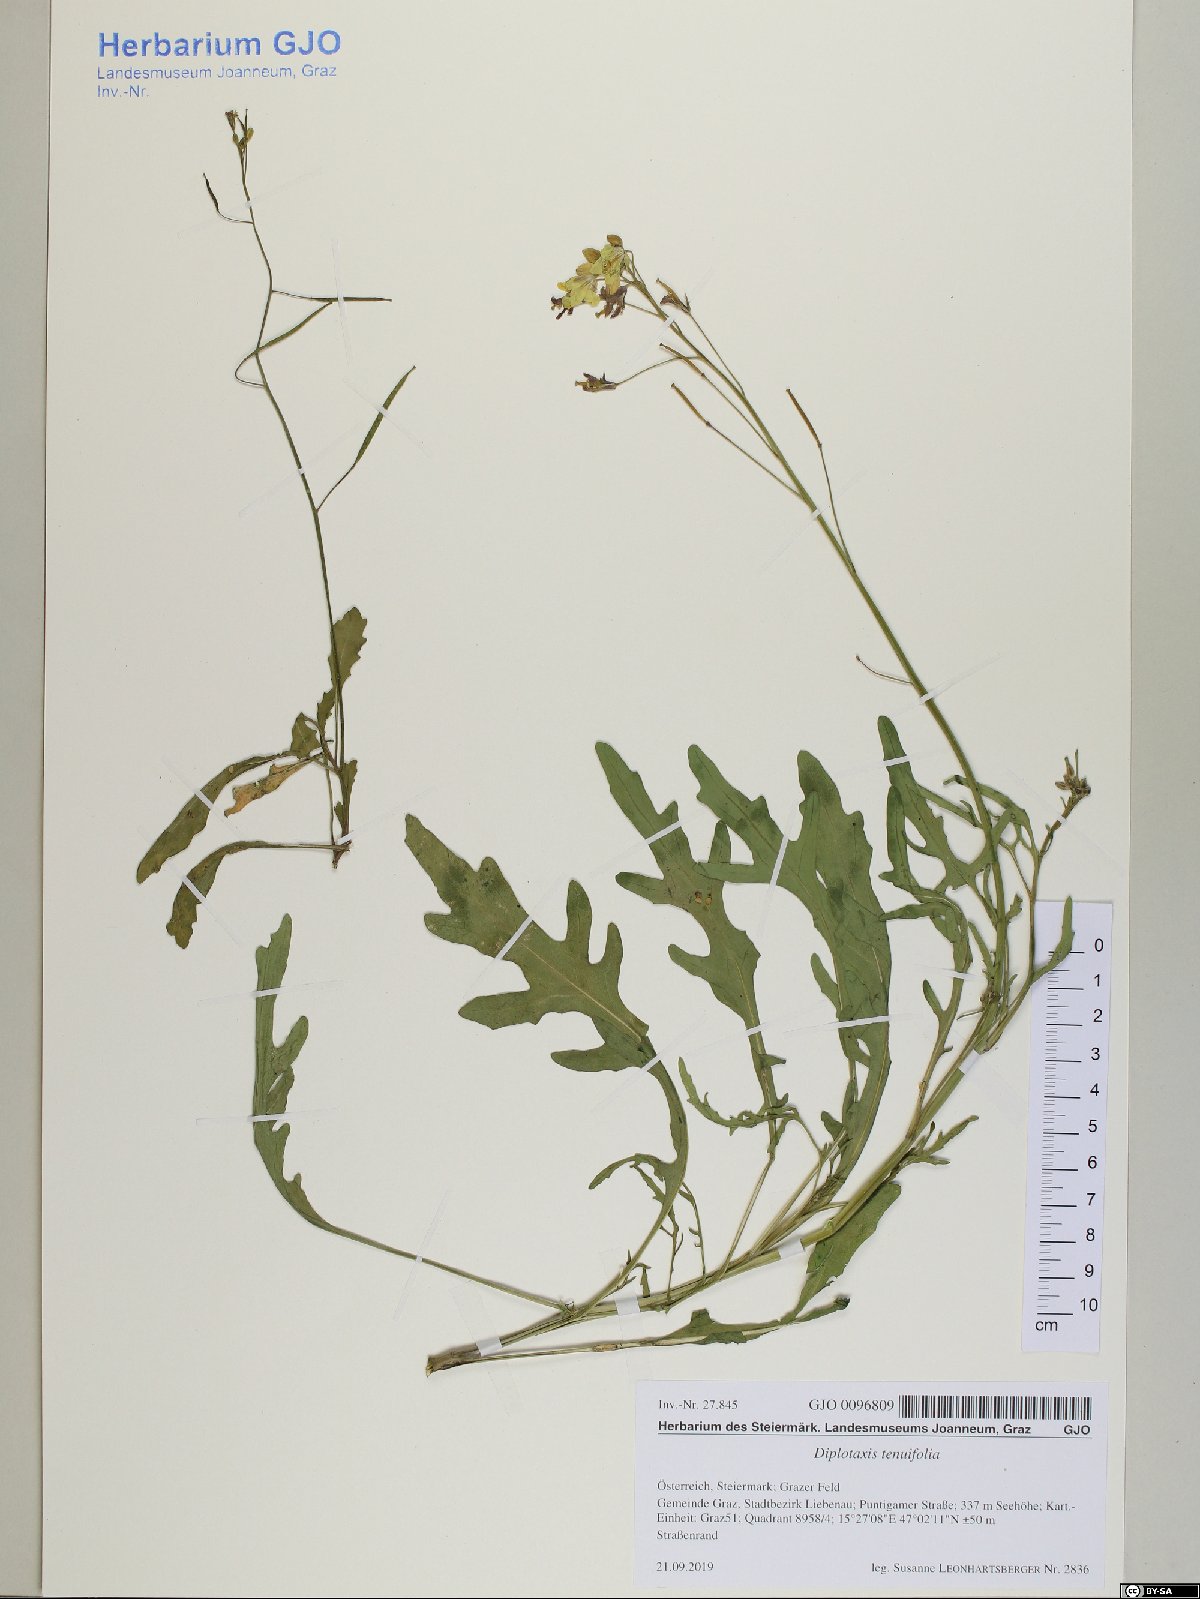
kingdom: Plantae
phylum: Tracheophyta
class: Magnoliopsida
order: Brassicales
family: Brassicaceae
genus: Diplotaxis
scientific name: Diplotaxis tenuifolia
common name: Perennial wall-rocket
